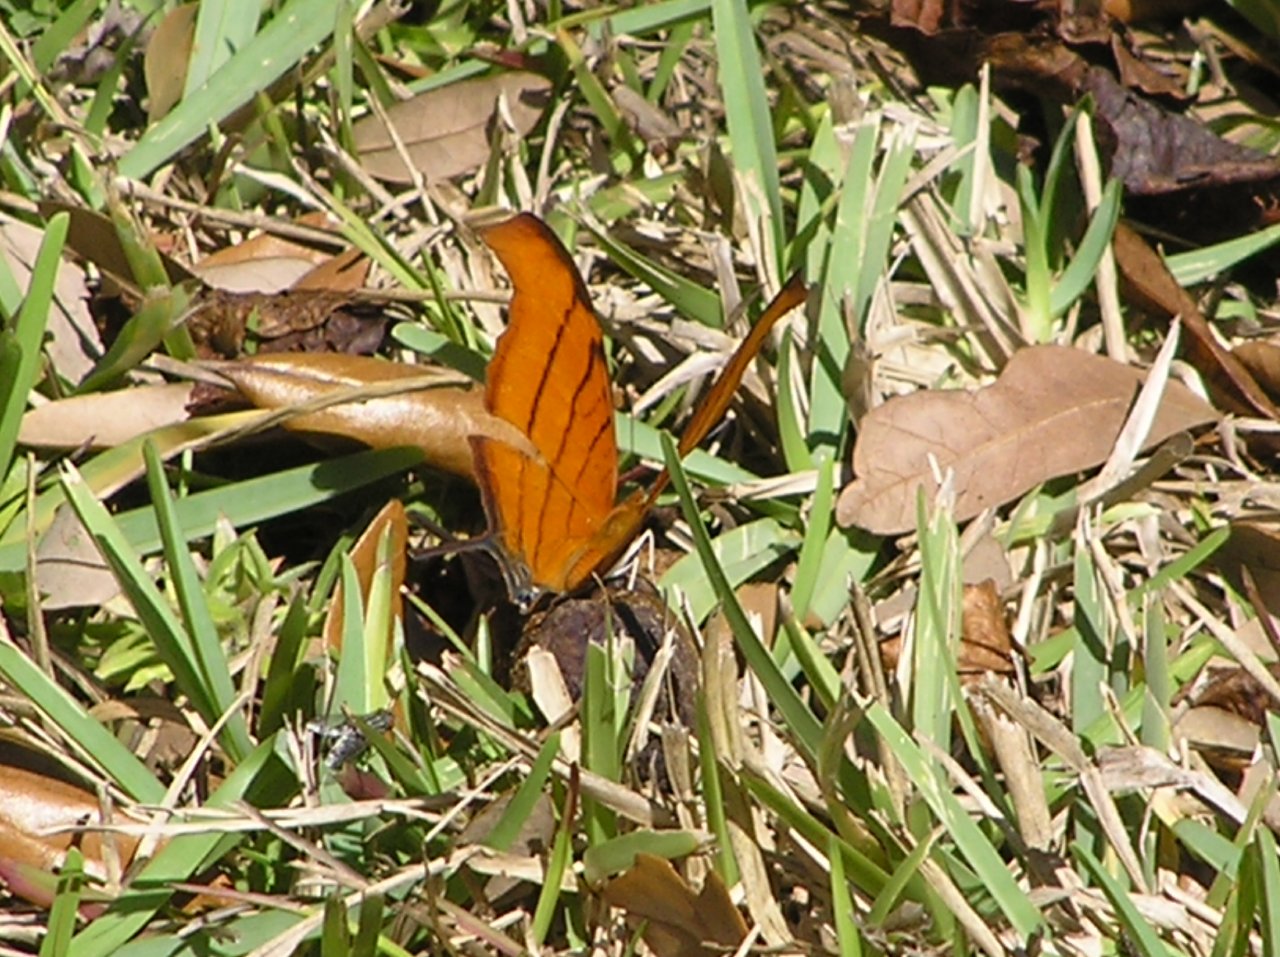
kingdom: Animalia
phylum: Arthropoda
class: Insecta
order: Lepidoptera
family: Nymphalidae
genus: Marpesia
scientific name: Marpesia petreus
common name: Ruddy Daggerwing
